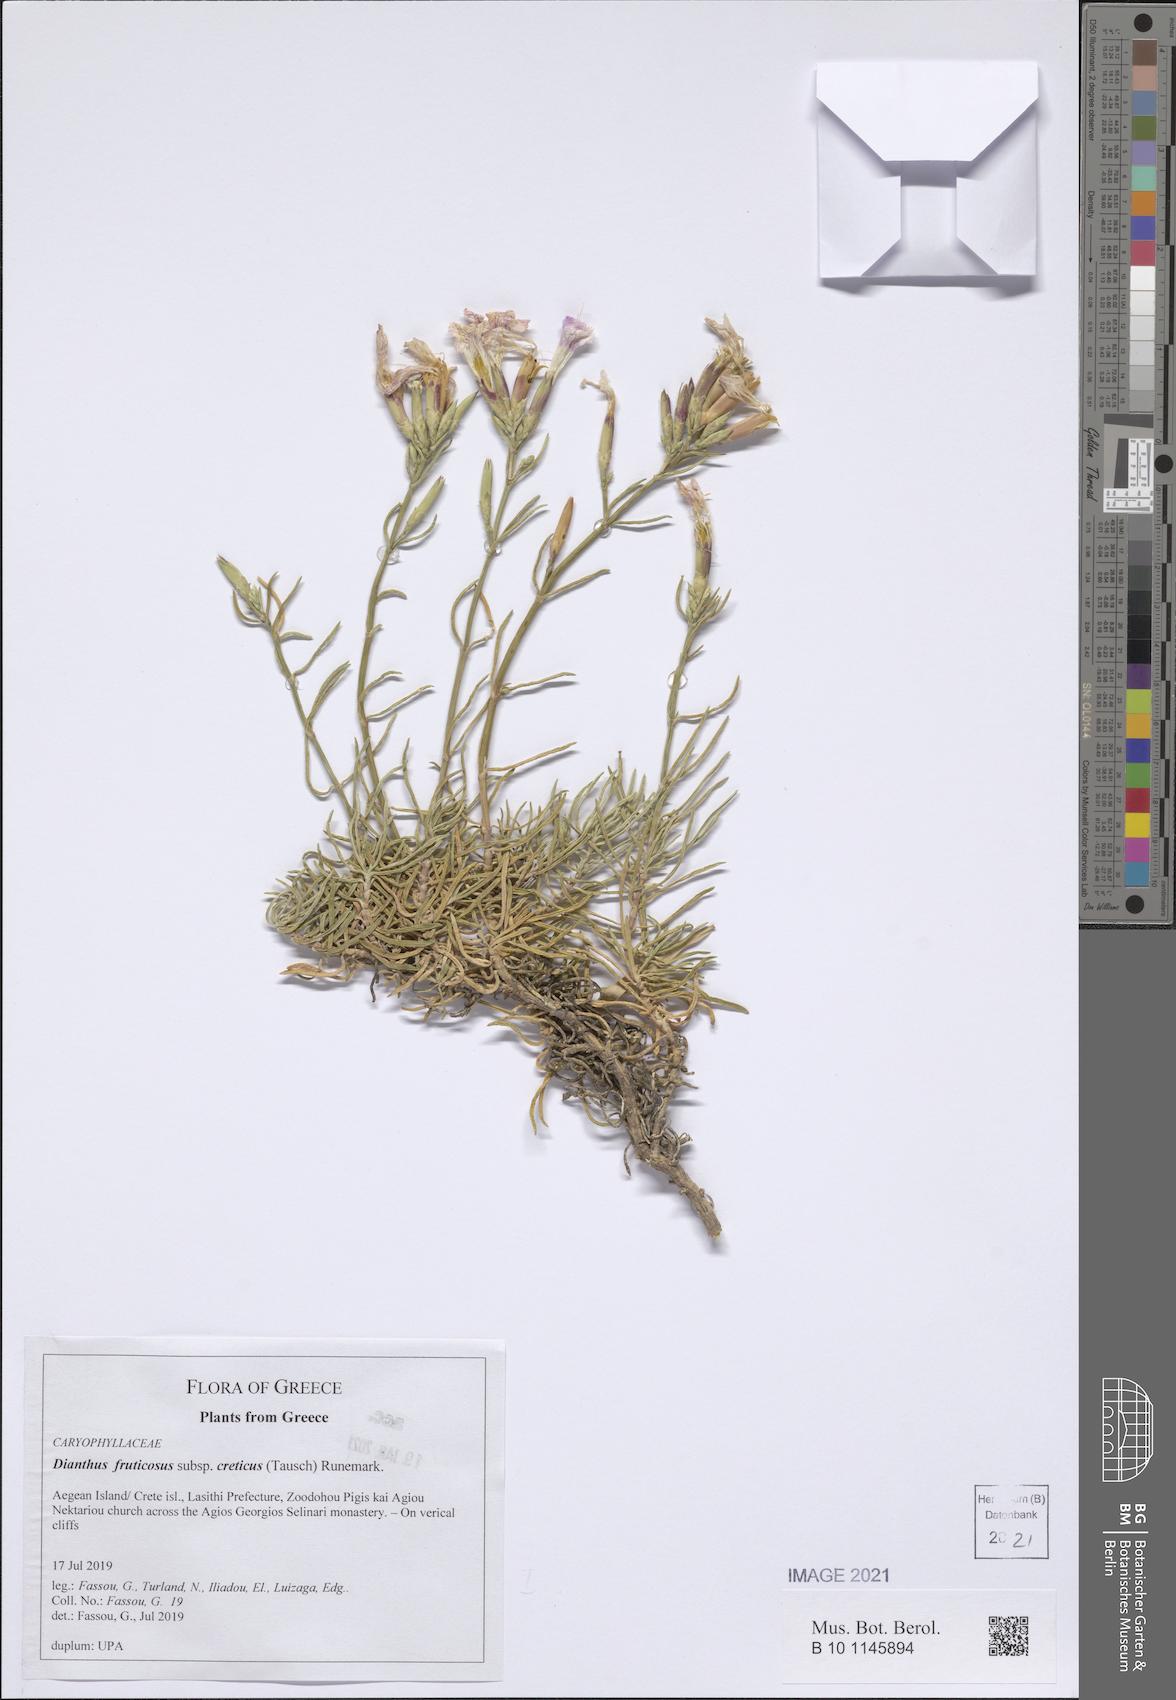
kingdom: Plantae
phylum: Tracheophyta
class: Magnoliopsida
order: Caryophyllales
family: Caryophyllaceae
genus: Dianthus
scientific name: Dianthus fruticosus
